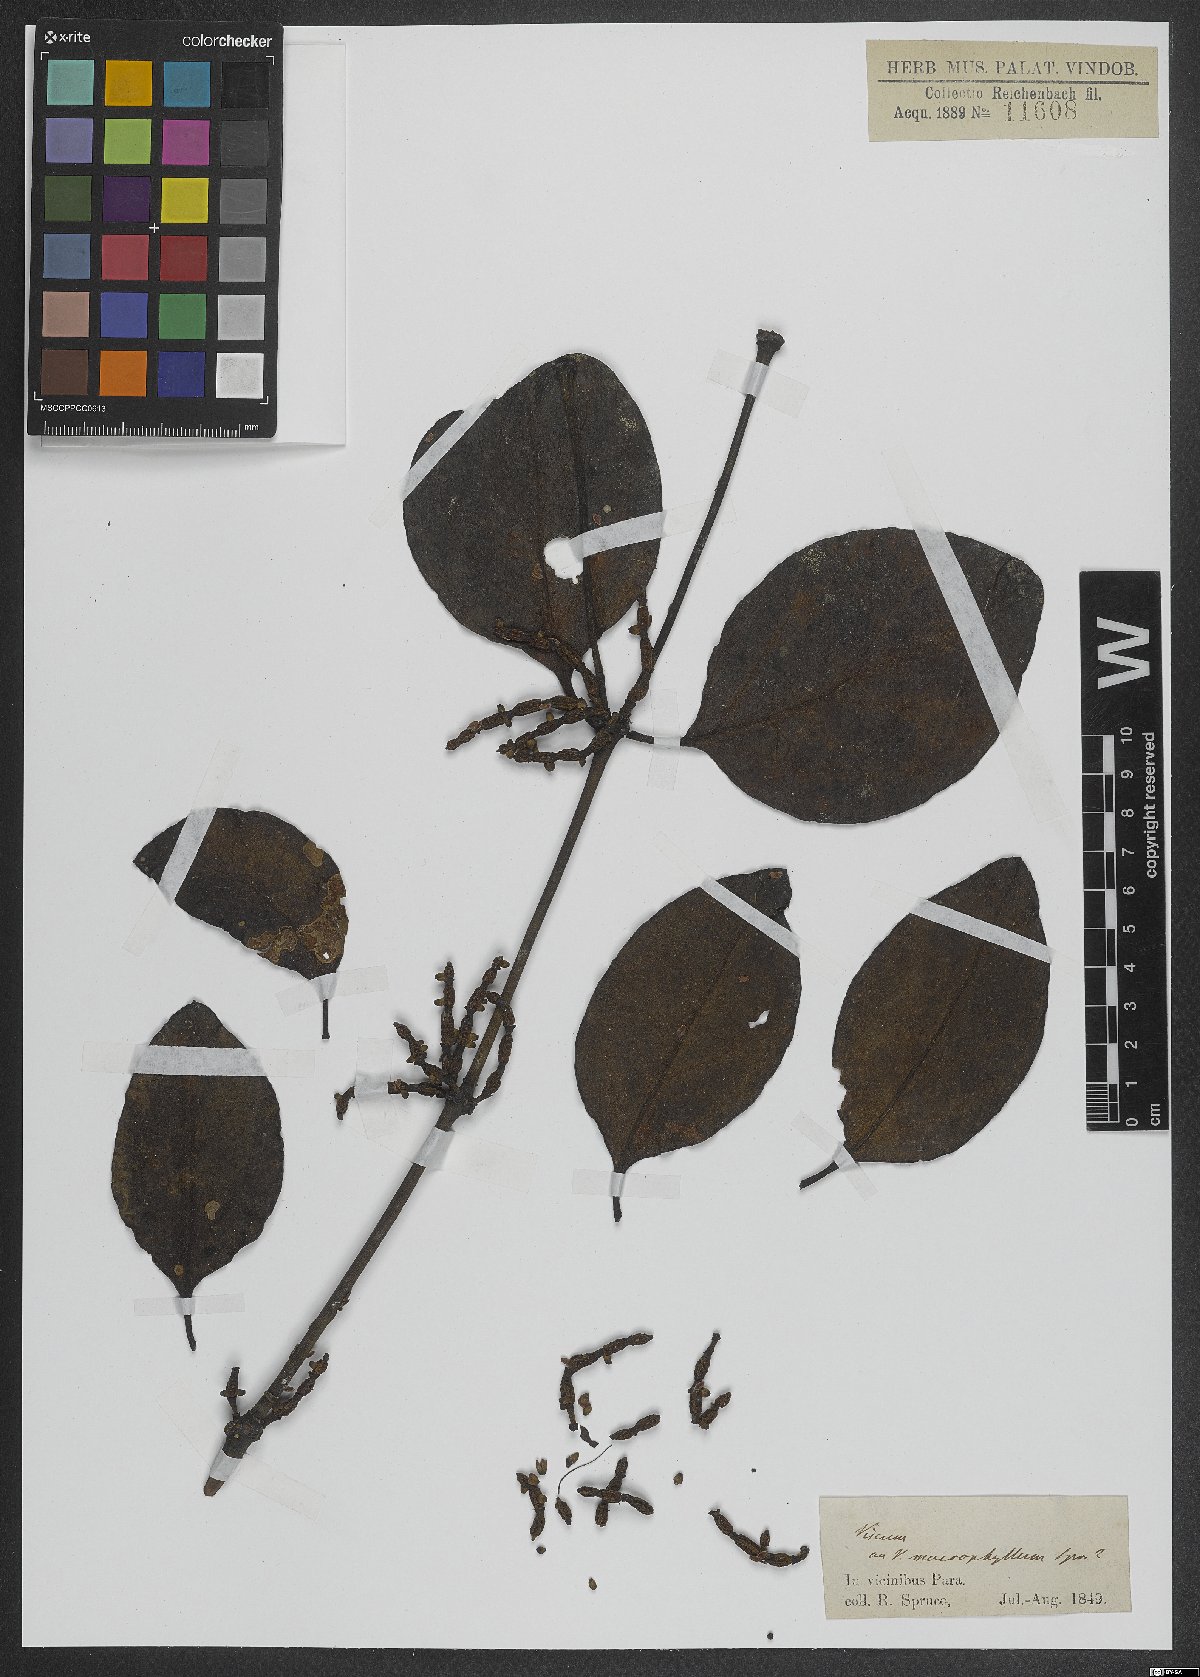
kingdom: Plantae
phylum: Tracheophyta
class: Magnoliopsida
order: Santalales
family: Viscaceae
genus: Viscum
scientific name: Viscum
